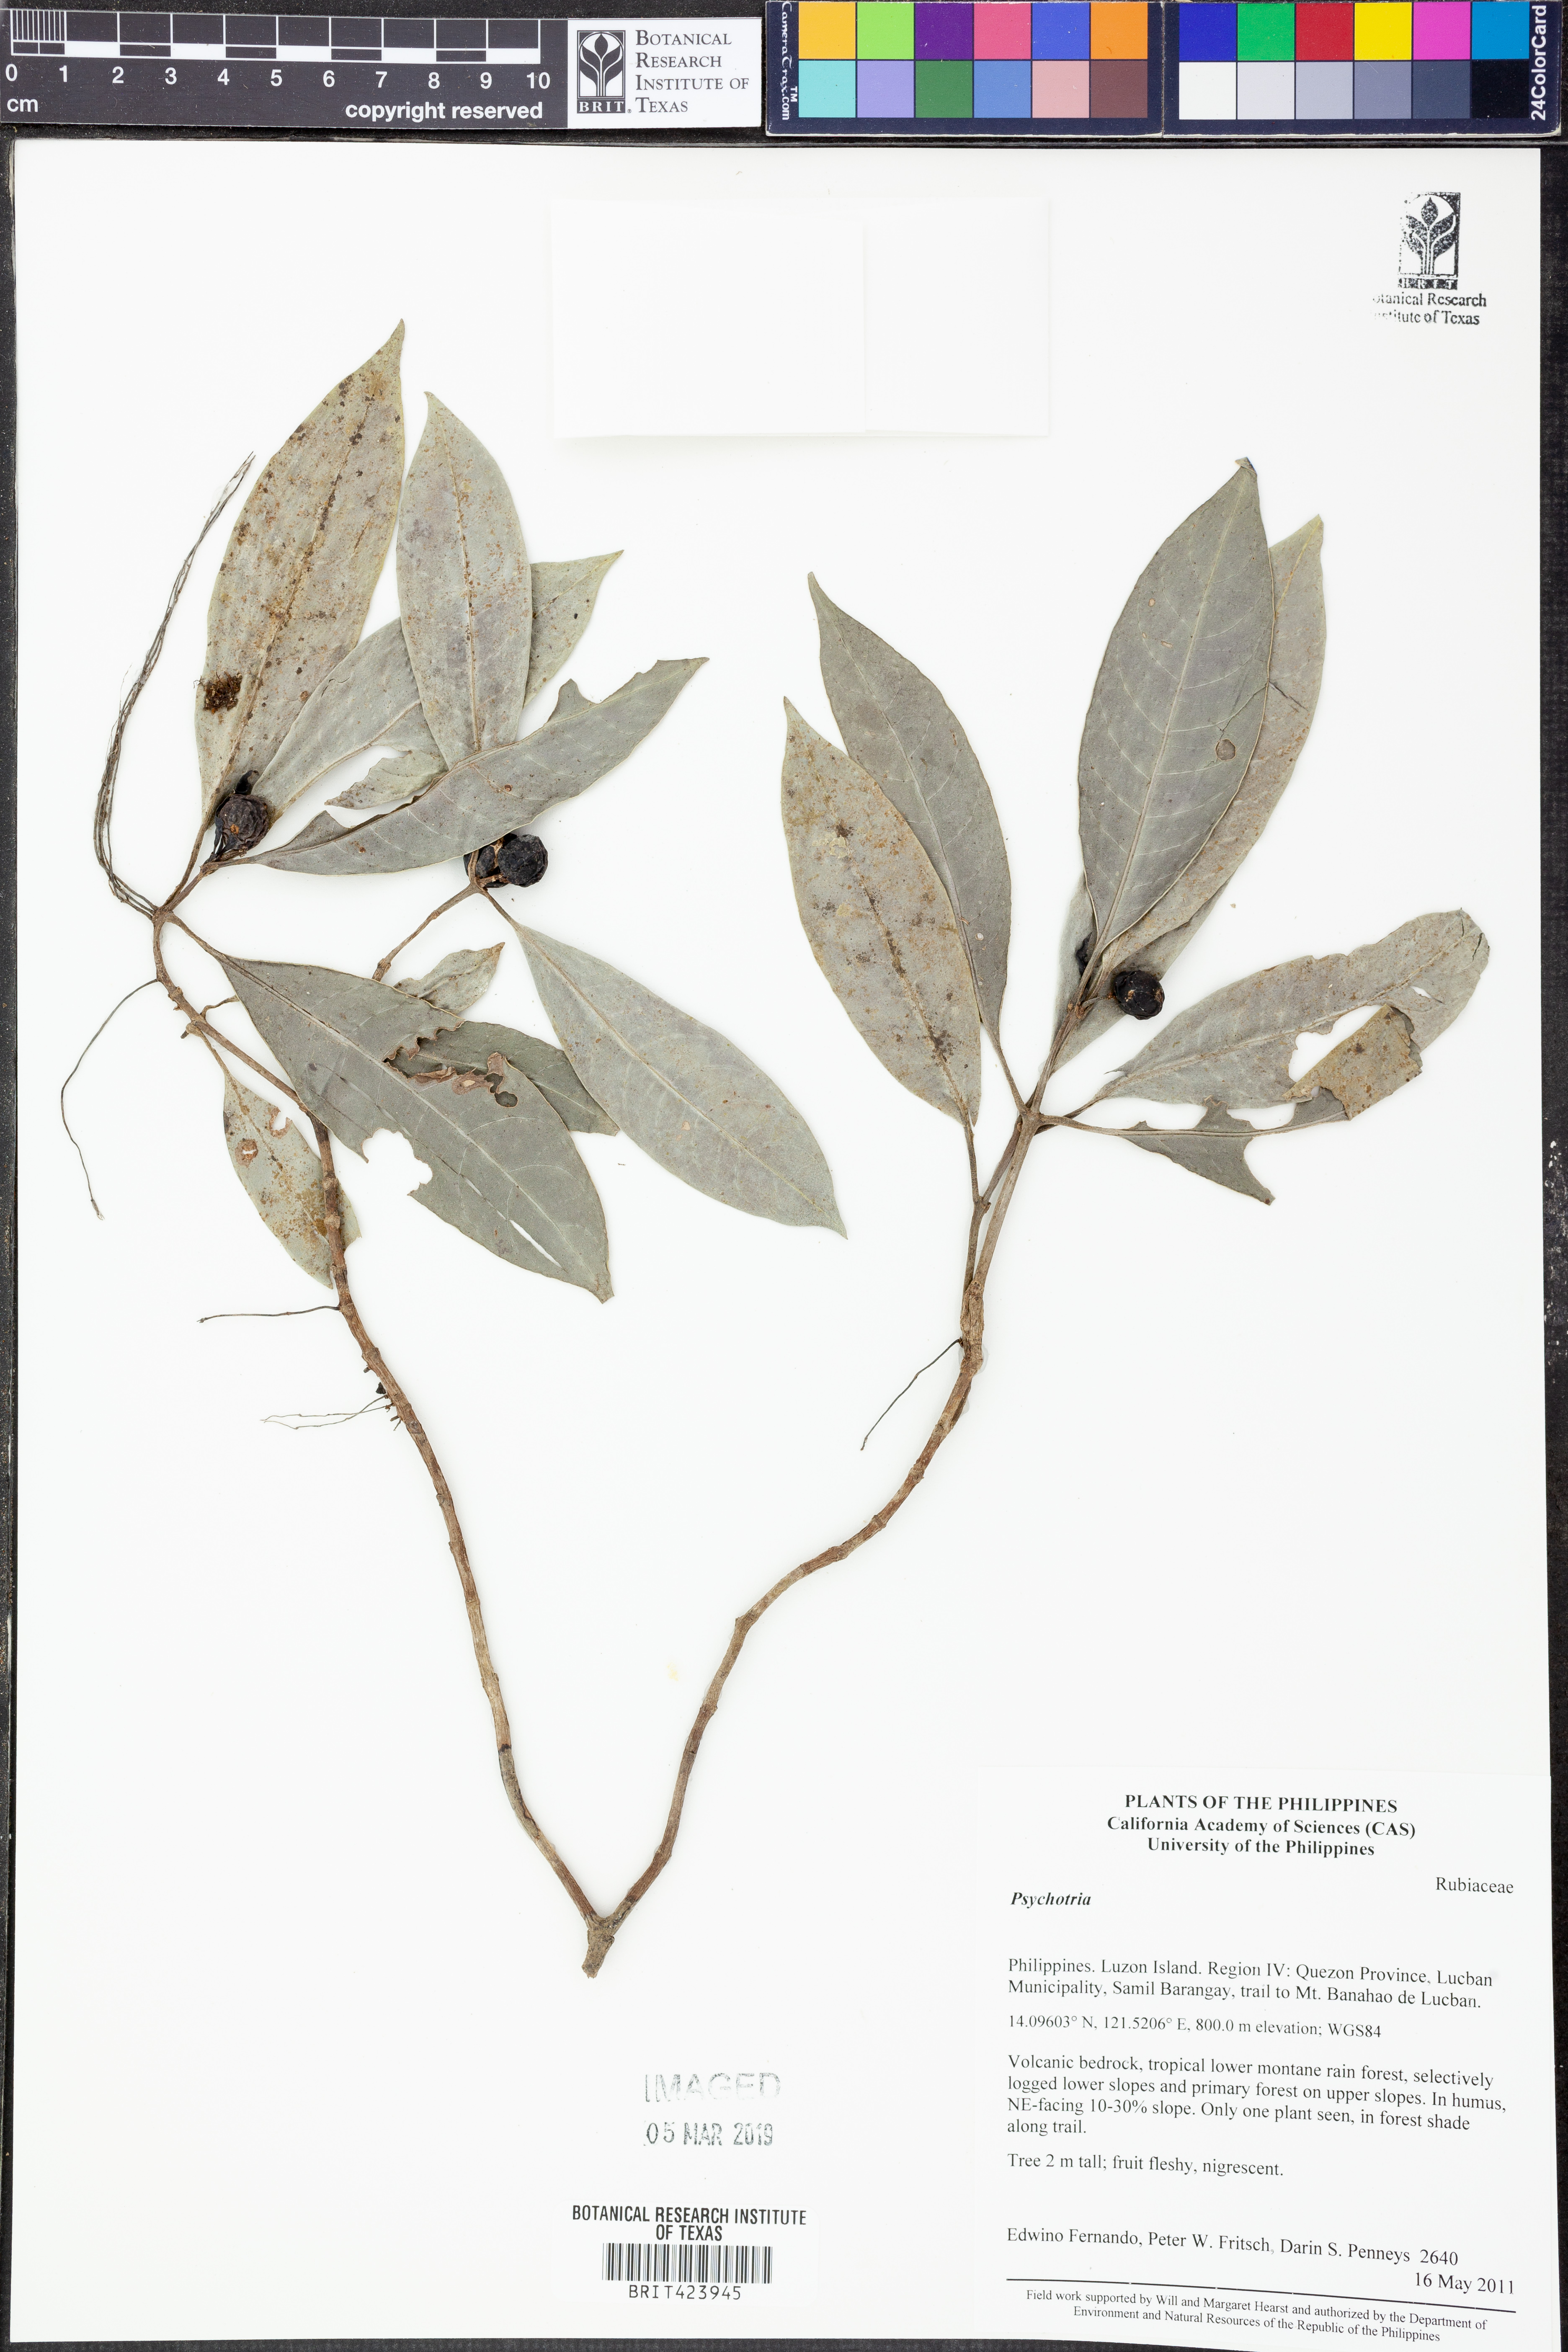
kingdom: Plantae
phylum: Tracheophyta
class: Magnoliopsida
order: Gentianales
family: Rubiaceae
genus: Psychotria
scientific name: Psychotria
